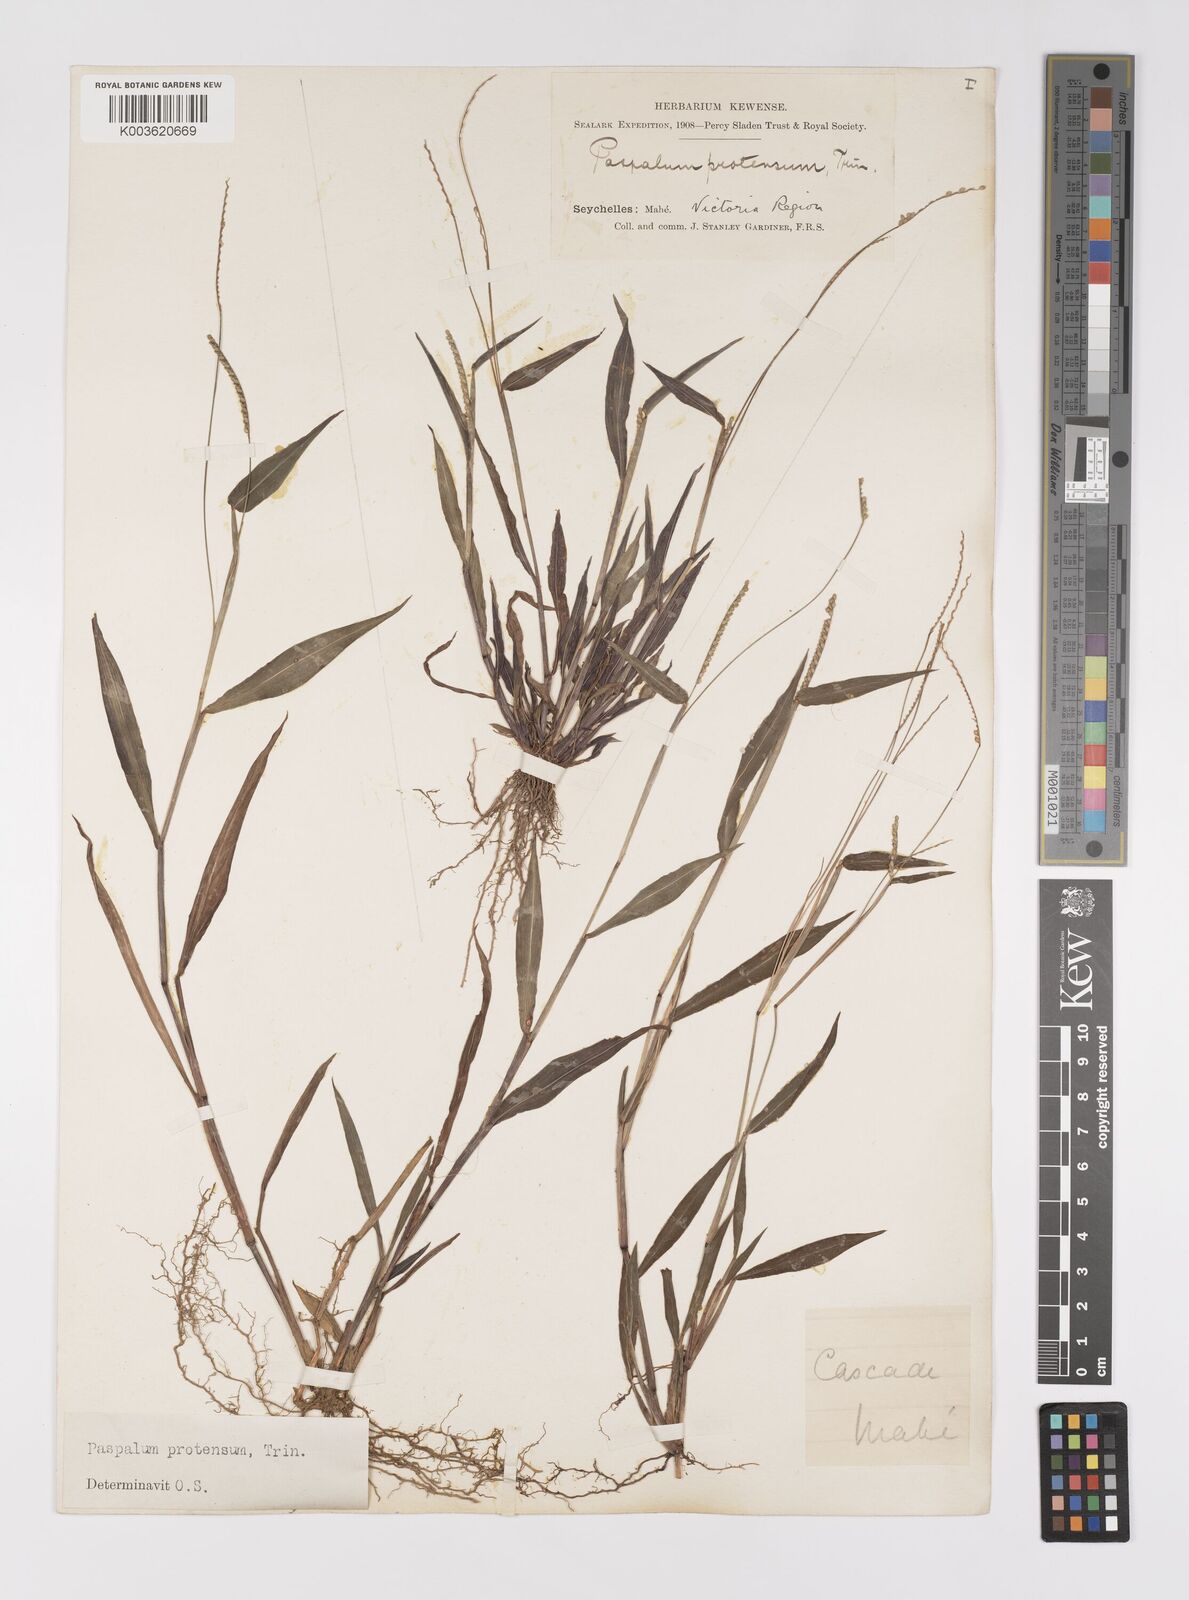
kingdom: Plantae
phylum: Tracheophyta
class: Liliopsida
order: Poales
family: Poaceae
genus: Paspalum
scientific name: Paspalum nutans
